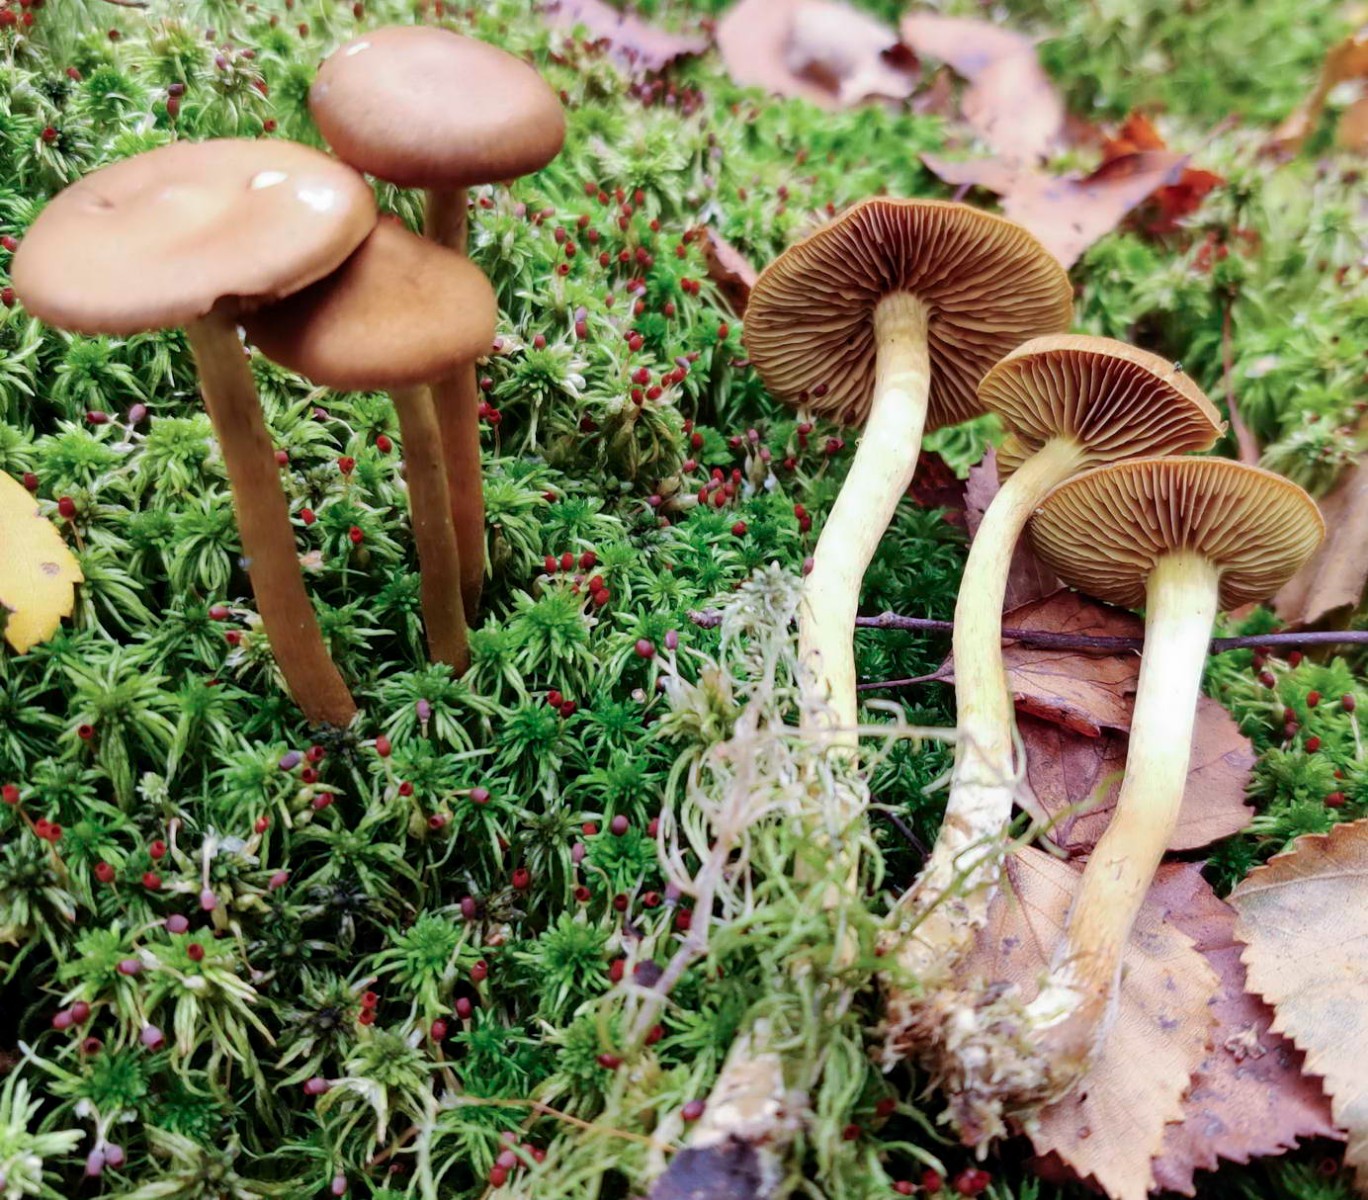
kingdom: Fungi
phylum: Basidiomycota
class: Agaricomycetes
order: Agaricales
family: Cortinariaceae
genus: Cortinarius
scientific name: Cortinarius
